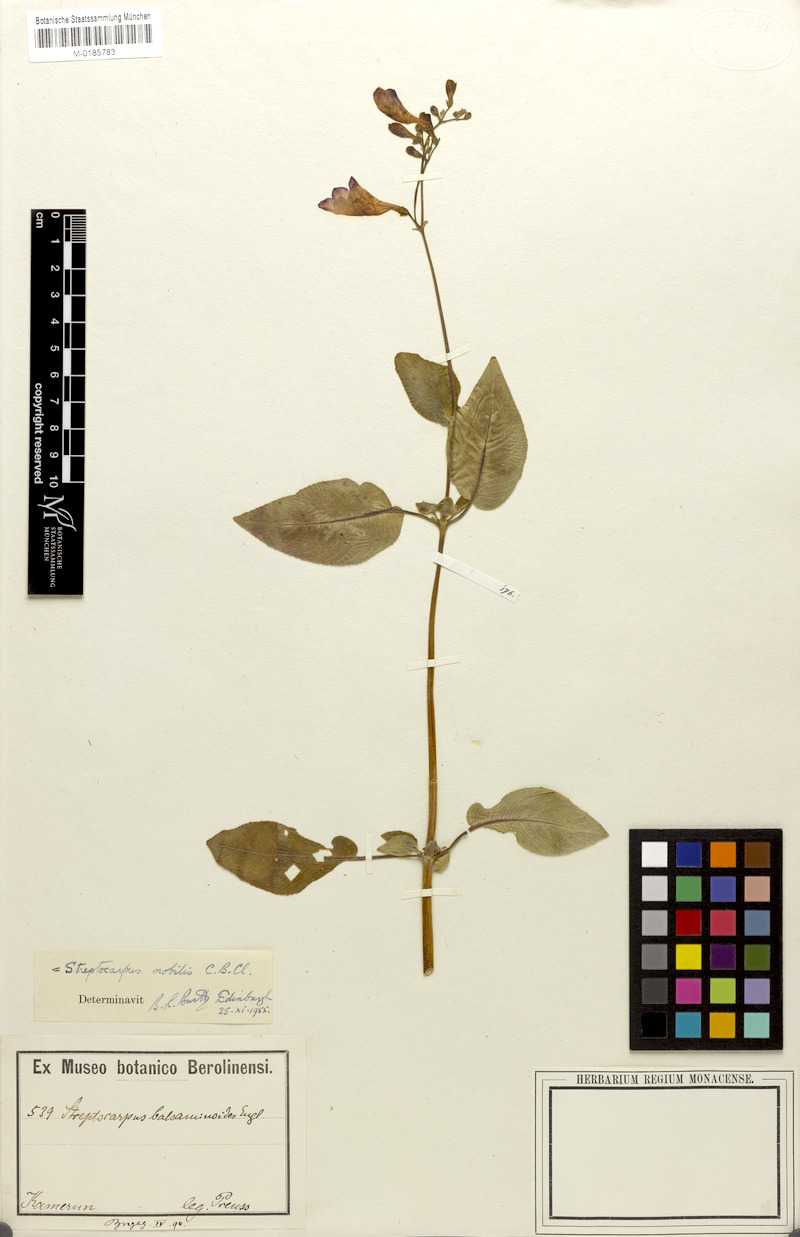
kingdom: Plantae
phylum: Tracheophyta
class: Magnoliopsida
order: Lamiales
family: Gesneriaceae
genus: Streptocarpus
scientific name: Streptocarpus nobilis
